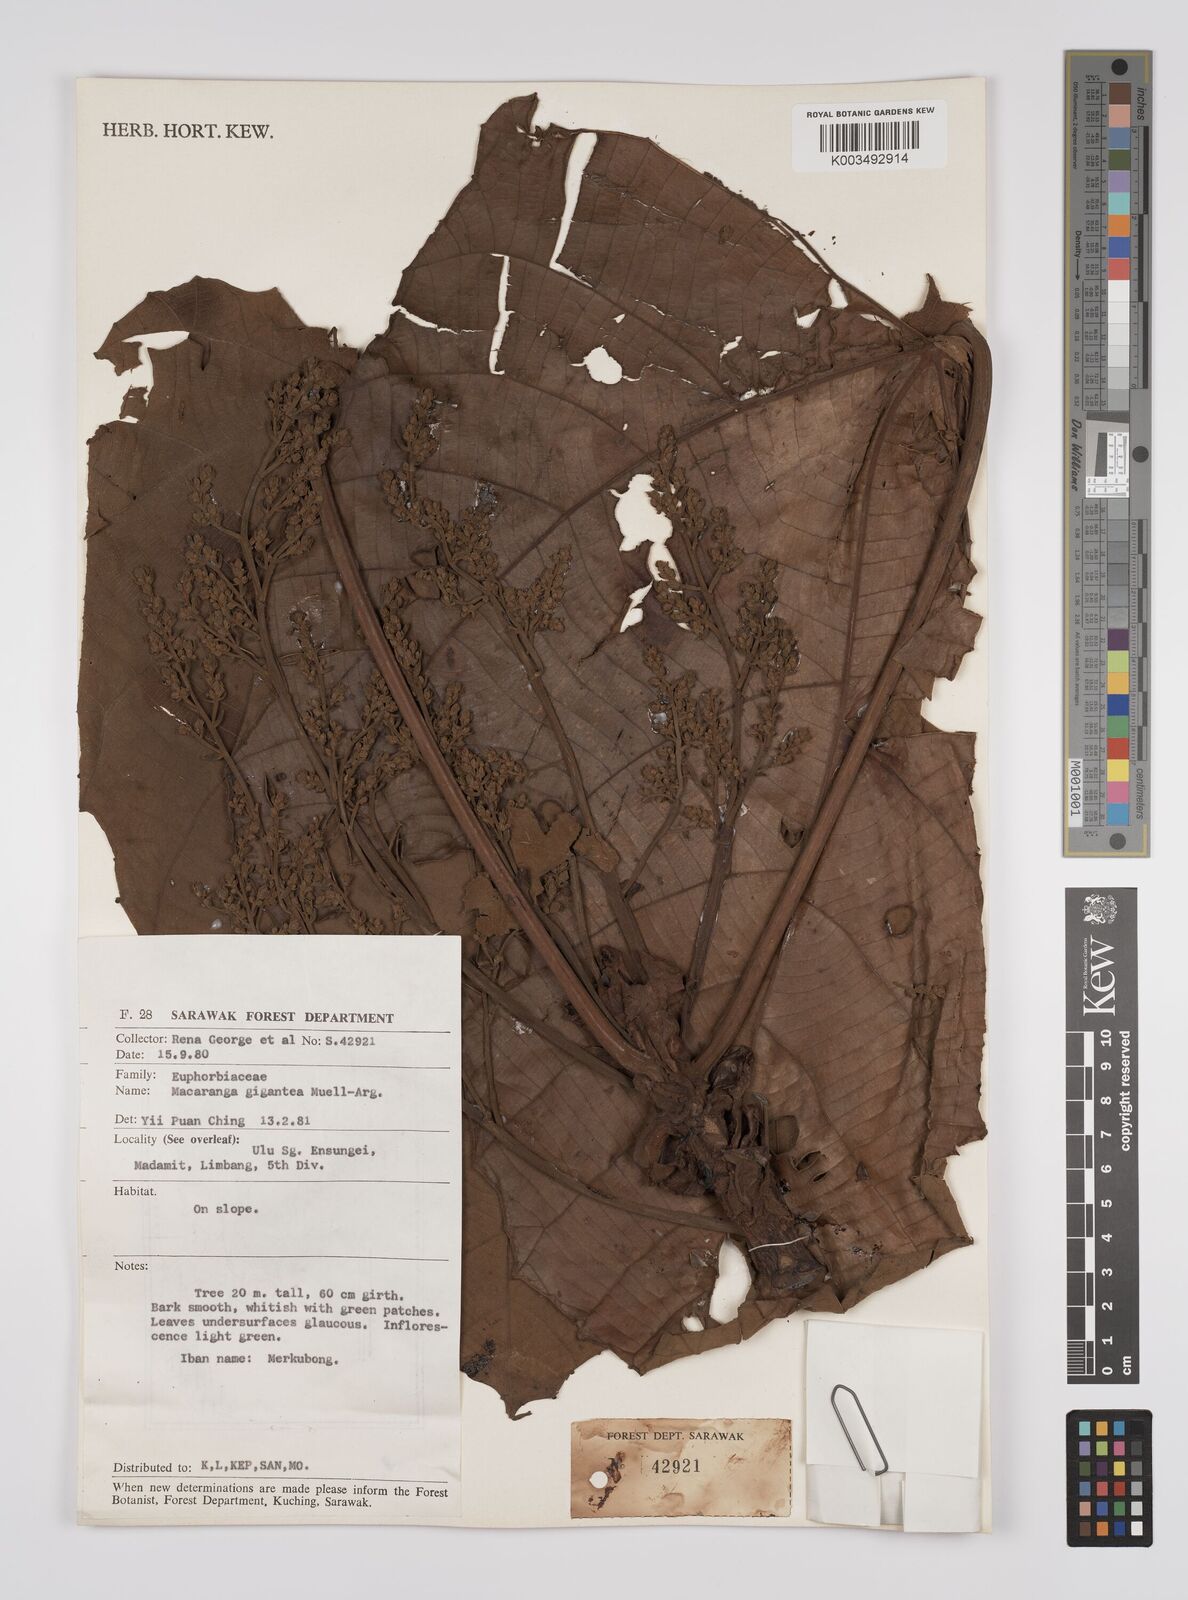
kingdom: Plantae
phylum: Tracheophyta
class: Magnoliopsida
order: Malpighiales
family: Euphorbiaceae
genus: Macaranga
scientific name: Macaranga gigantea
